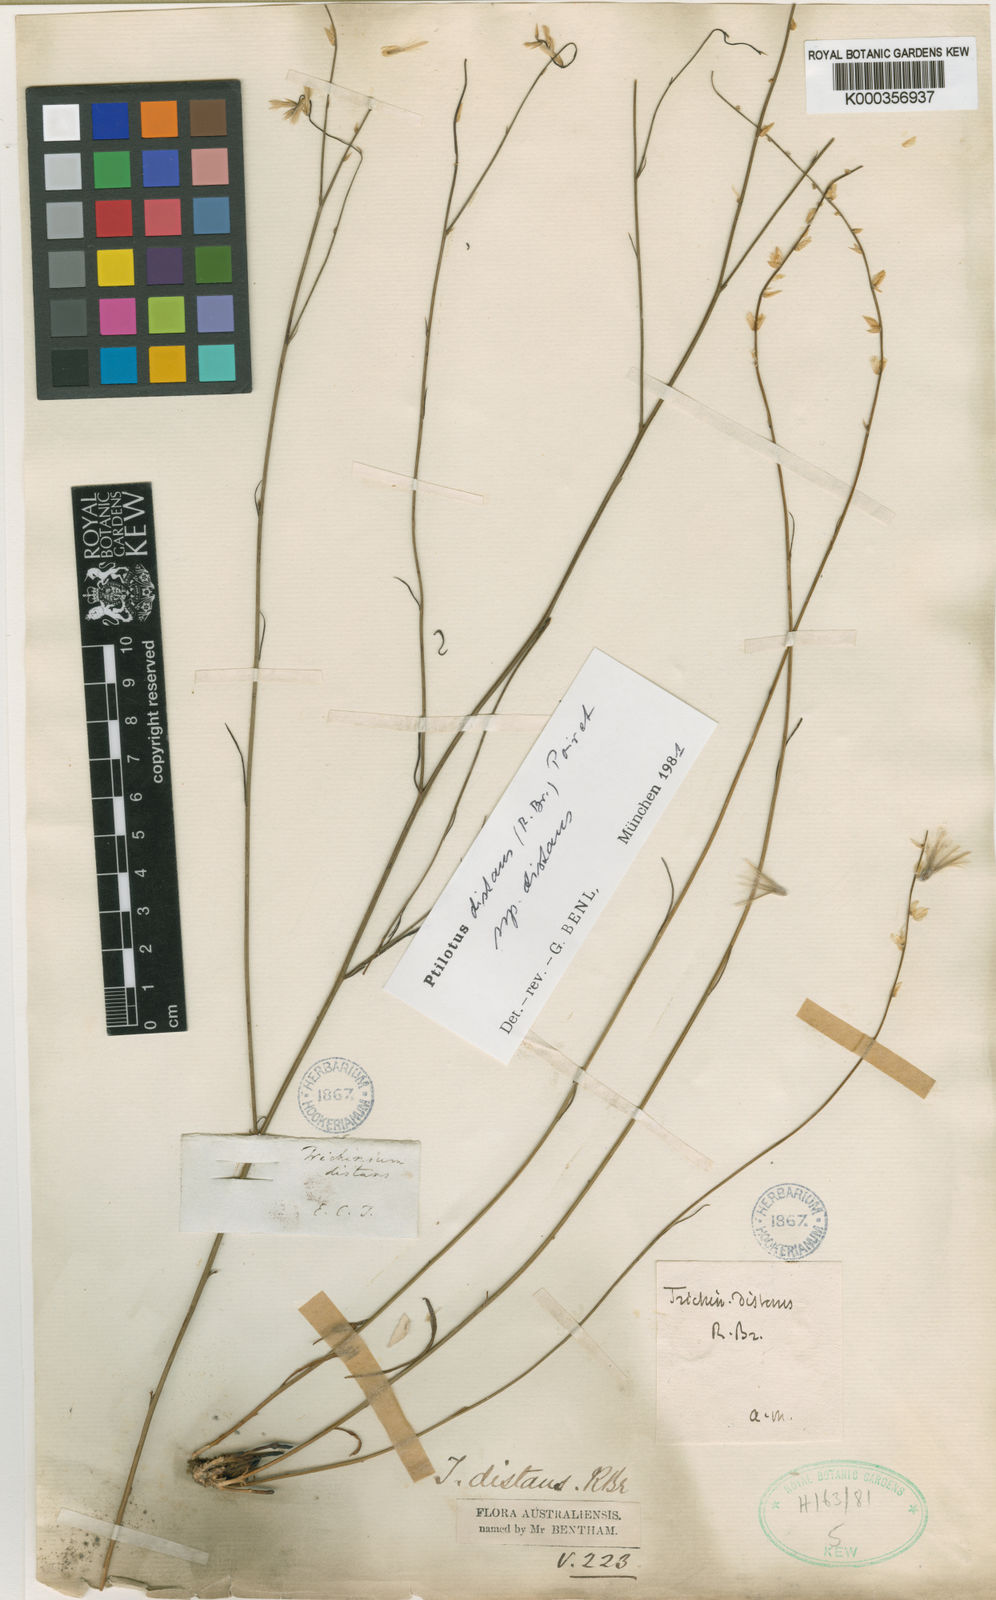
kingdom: Plantae
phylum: Tracheophyta
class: Magnoliopsida
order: Caryophyllales
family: Amaranthaceae
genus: Ptilotus
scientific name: Ptilotus
